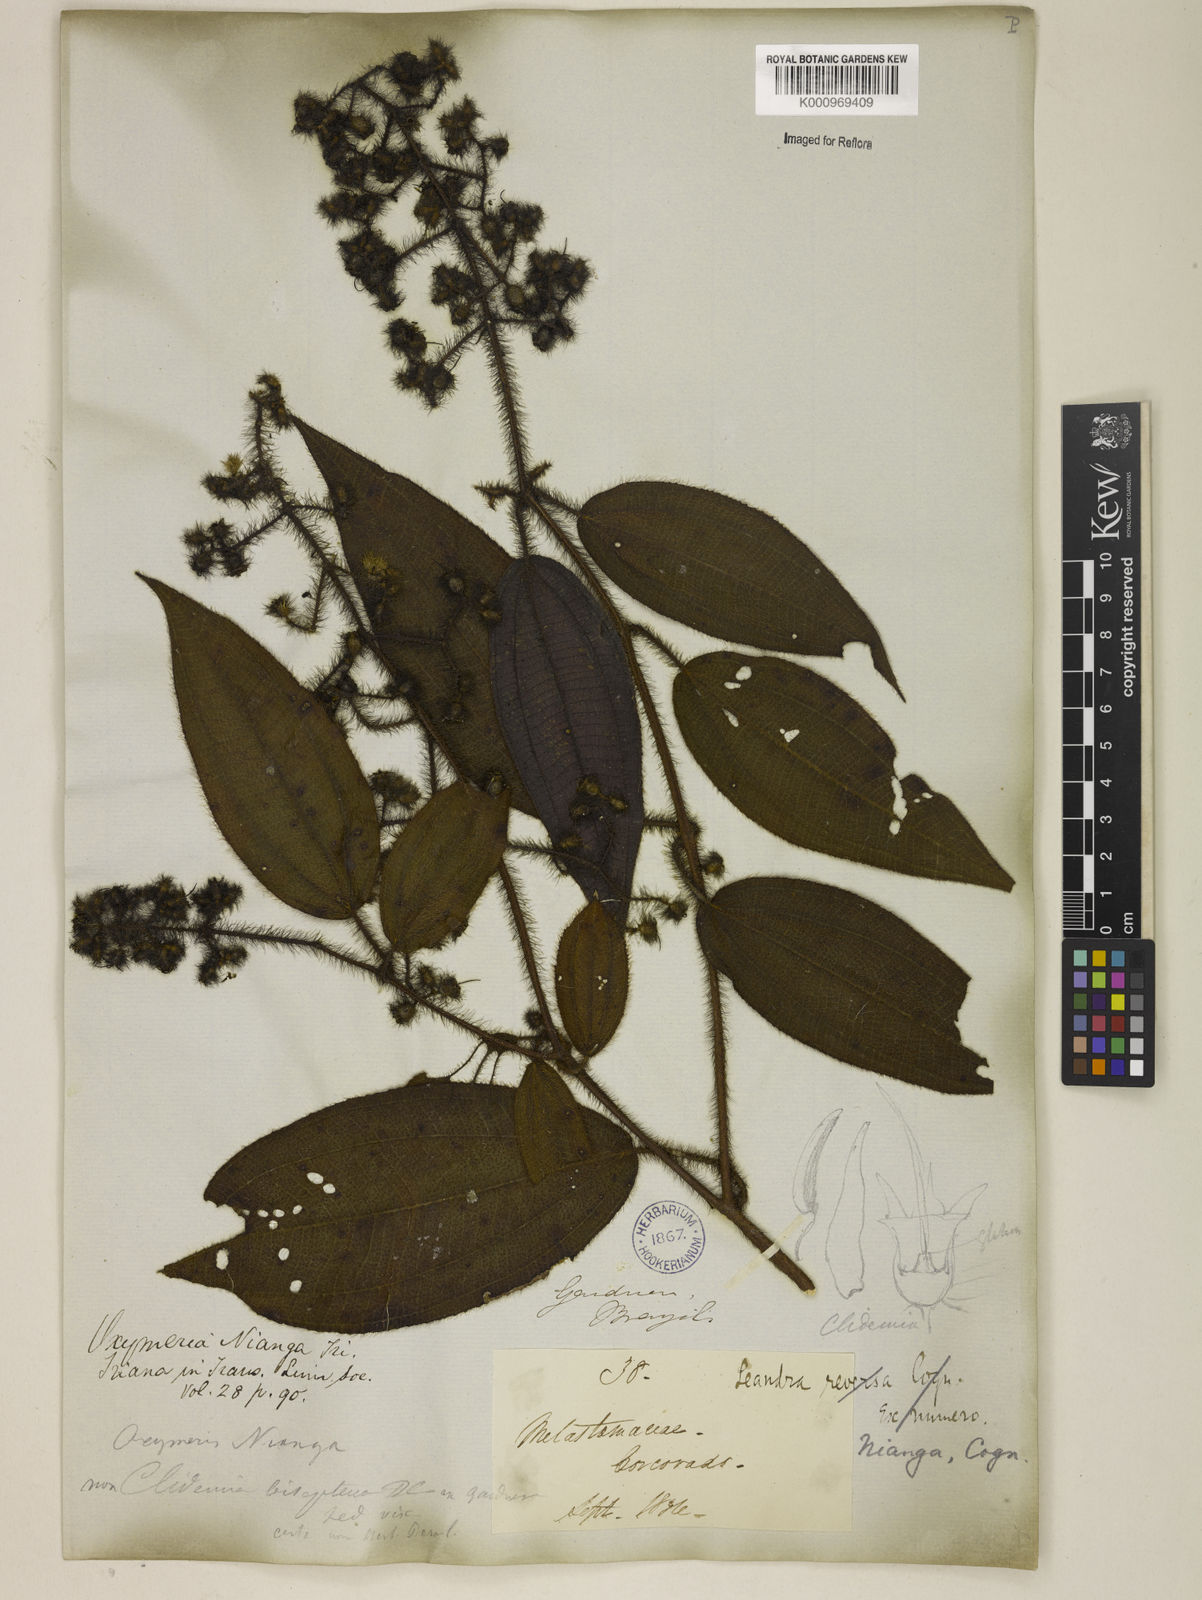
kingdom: Plantae
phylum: Tracheophyta
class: Magnoliopsida
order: Myrtales
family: Melastomataceae
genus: Miconia
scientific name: Miconia nianga
